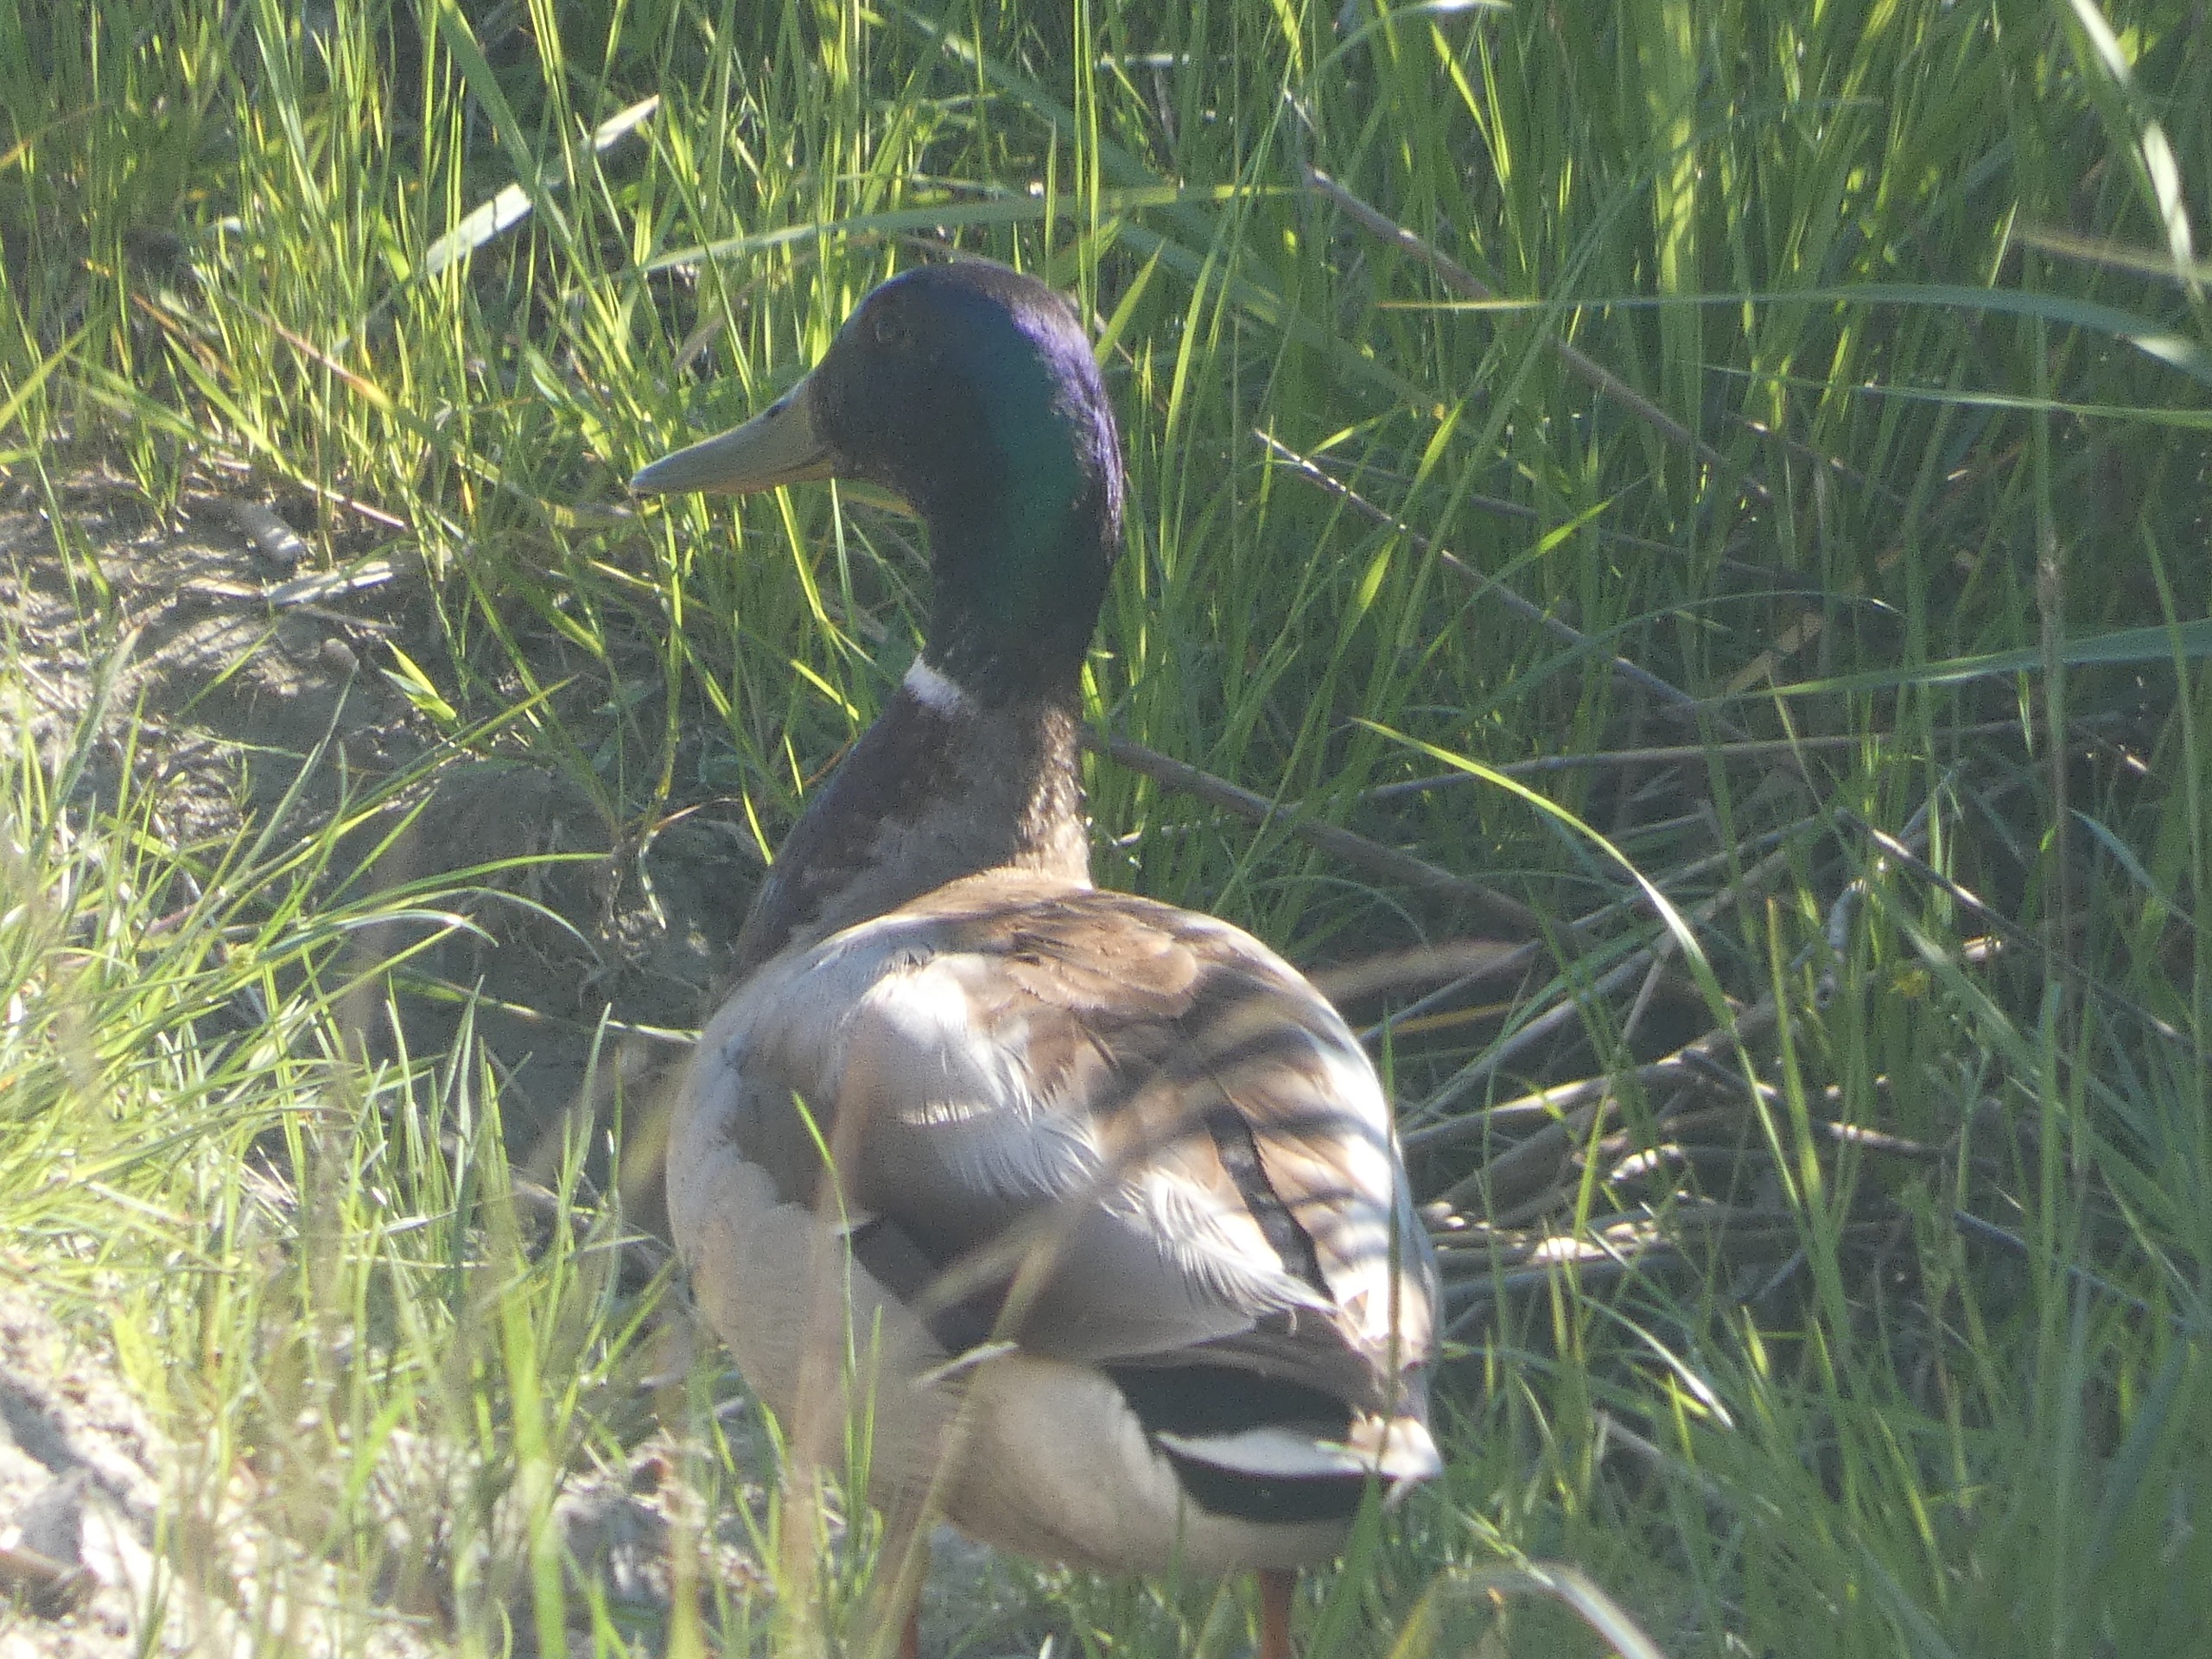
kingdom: Animalia
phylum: Chordata
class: Aves
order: Anseriformes
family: Anatidae
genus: Anas
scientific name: Anas platyrhynchos
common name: Gråand
